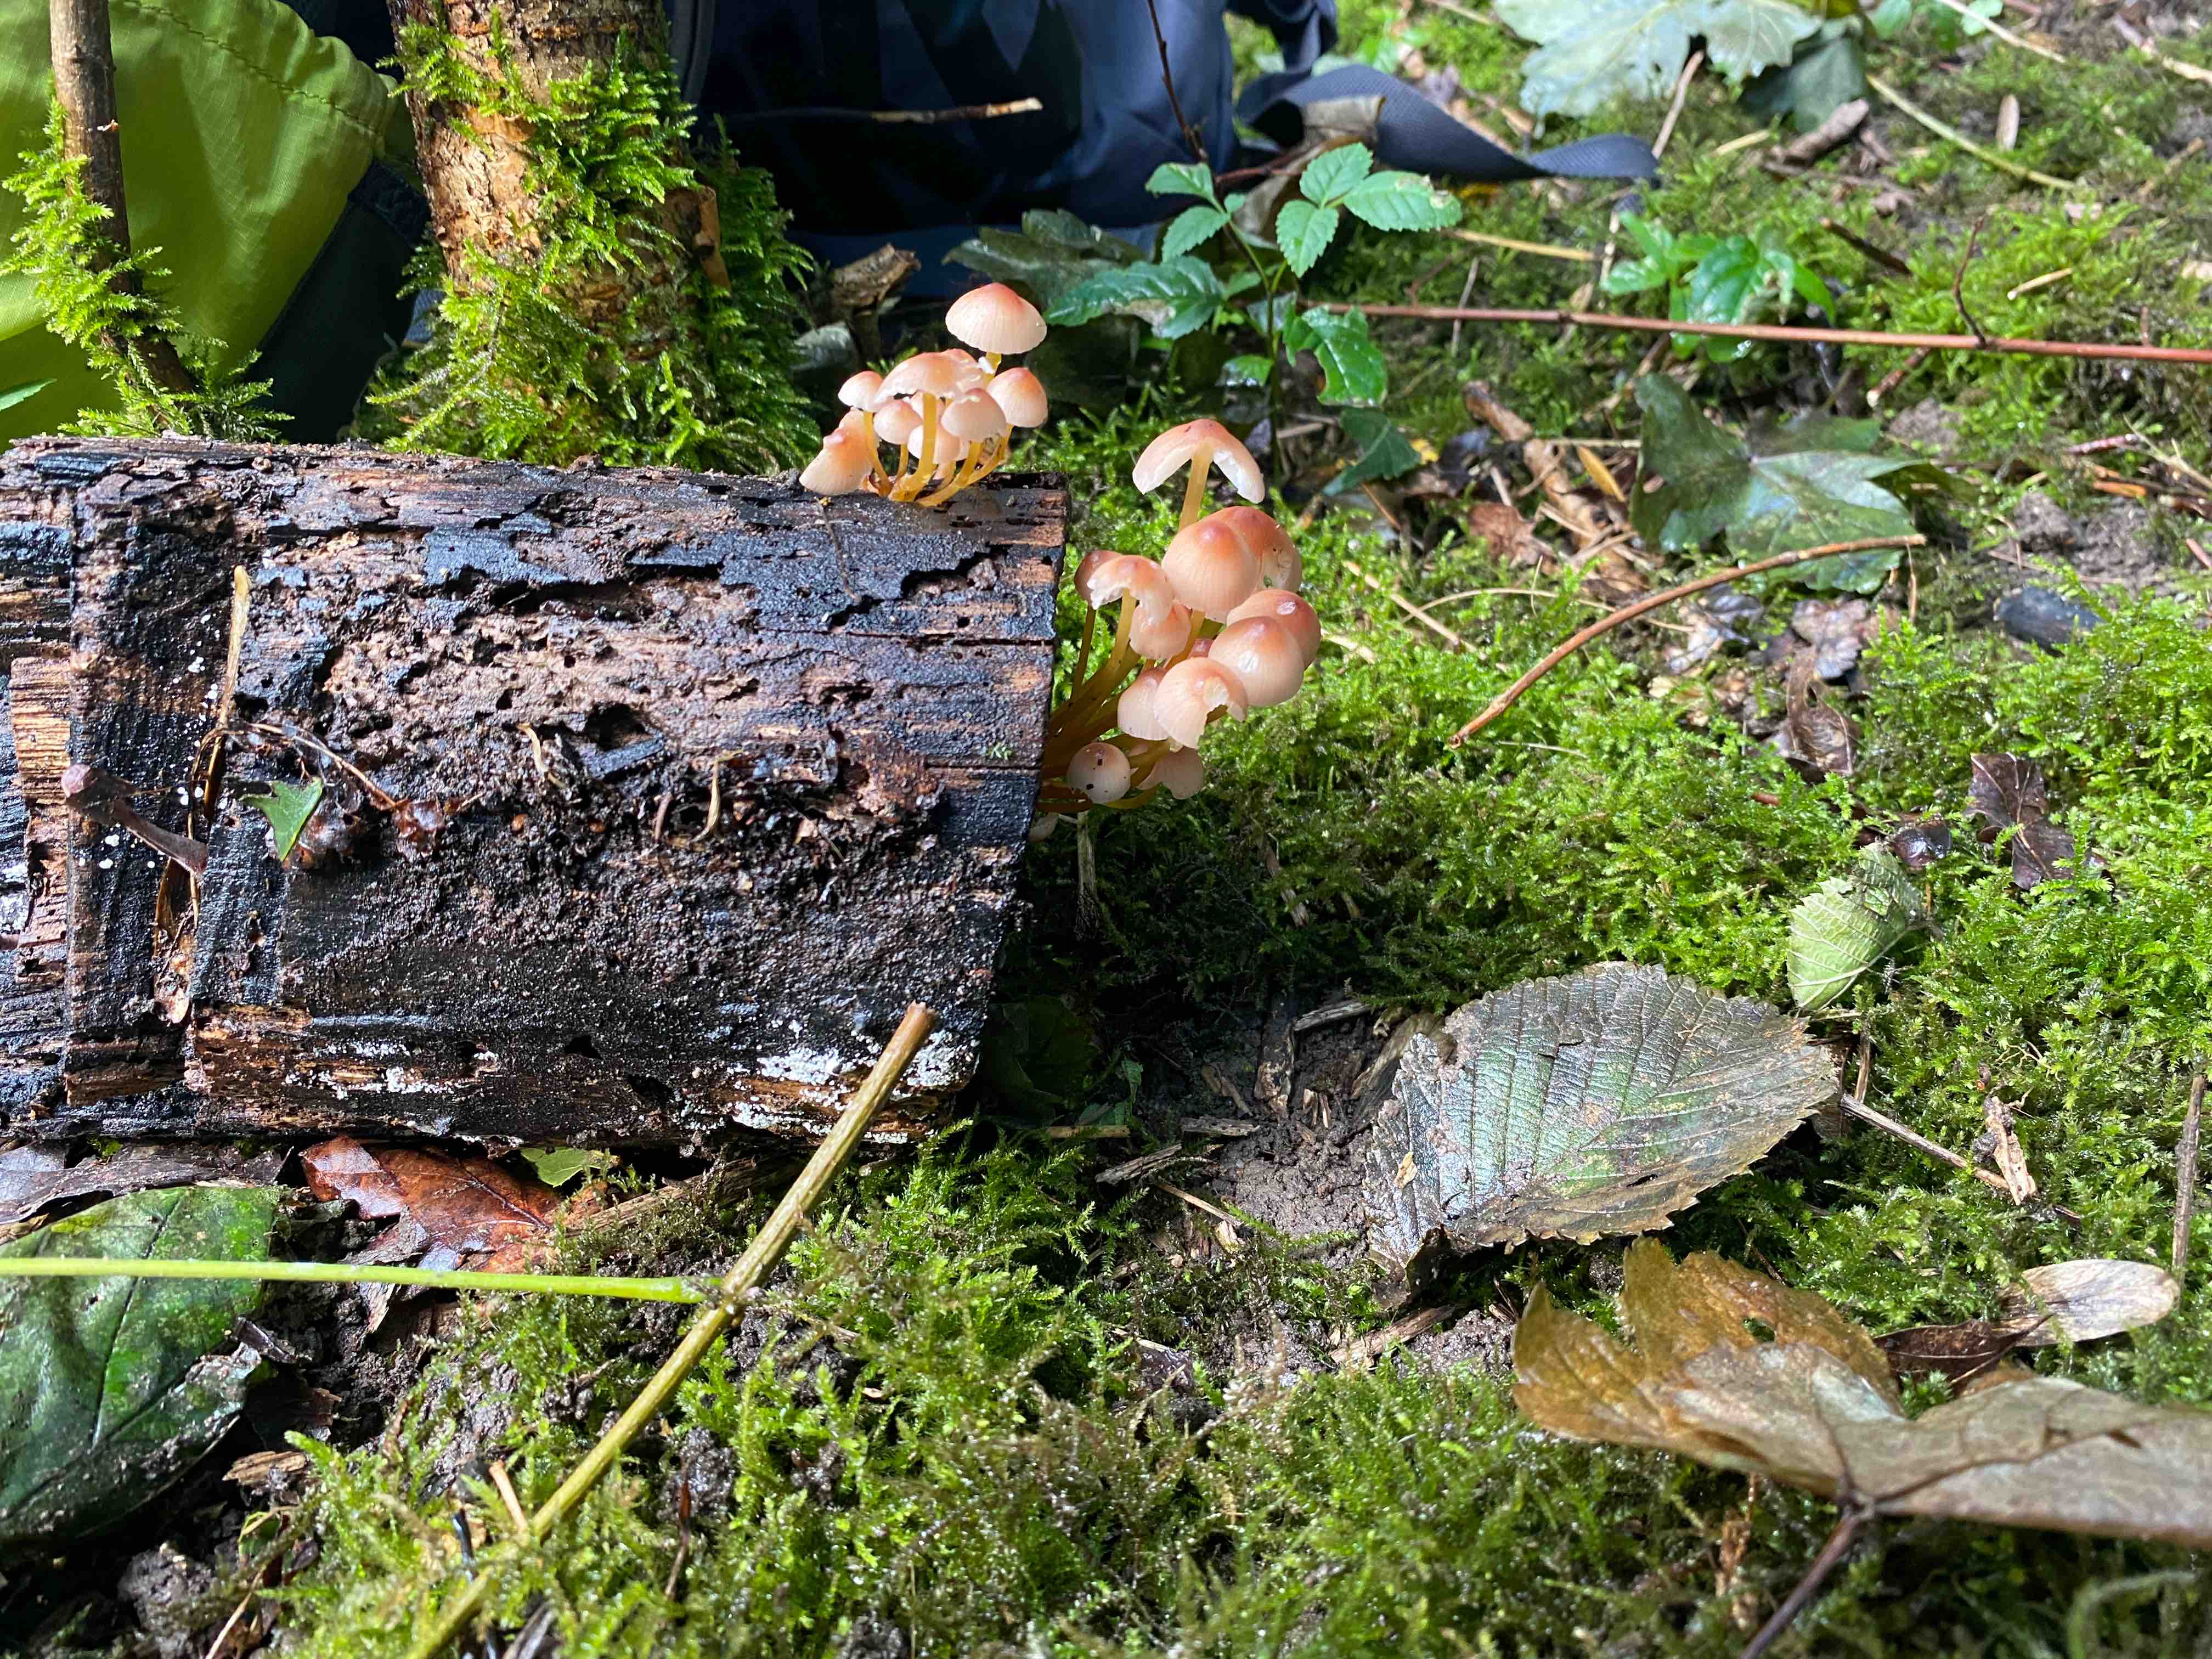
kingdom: Fungi
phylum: Basidiomycota
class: Agaricomycetes
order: Agaricales
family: Mycenaceae
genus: Mycena
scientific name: Mycena
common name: huesvamp
